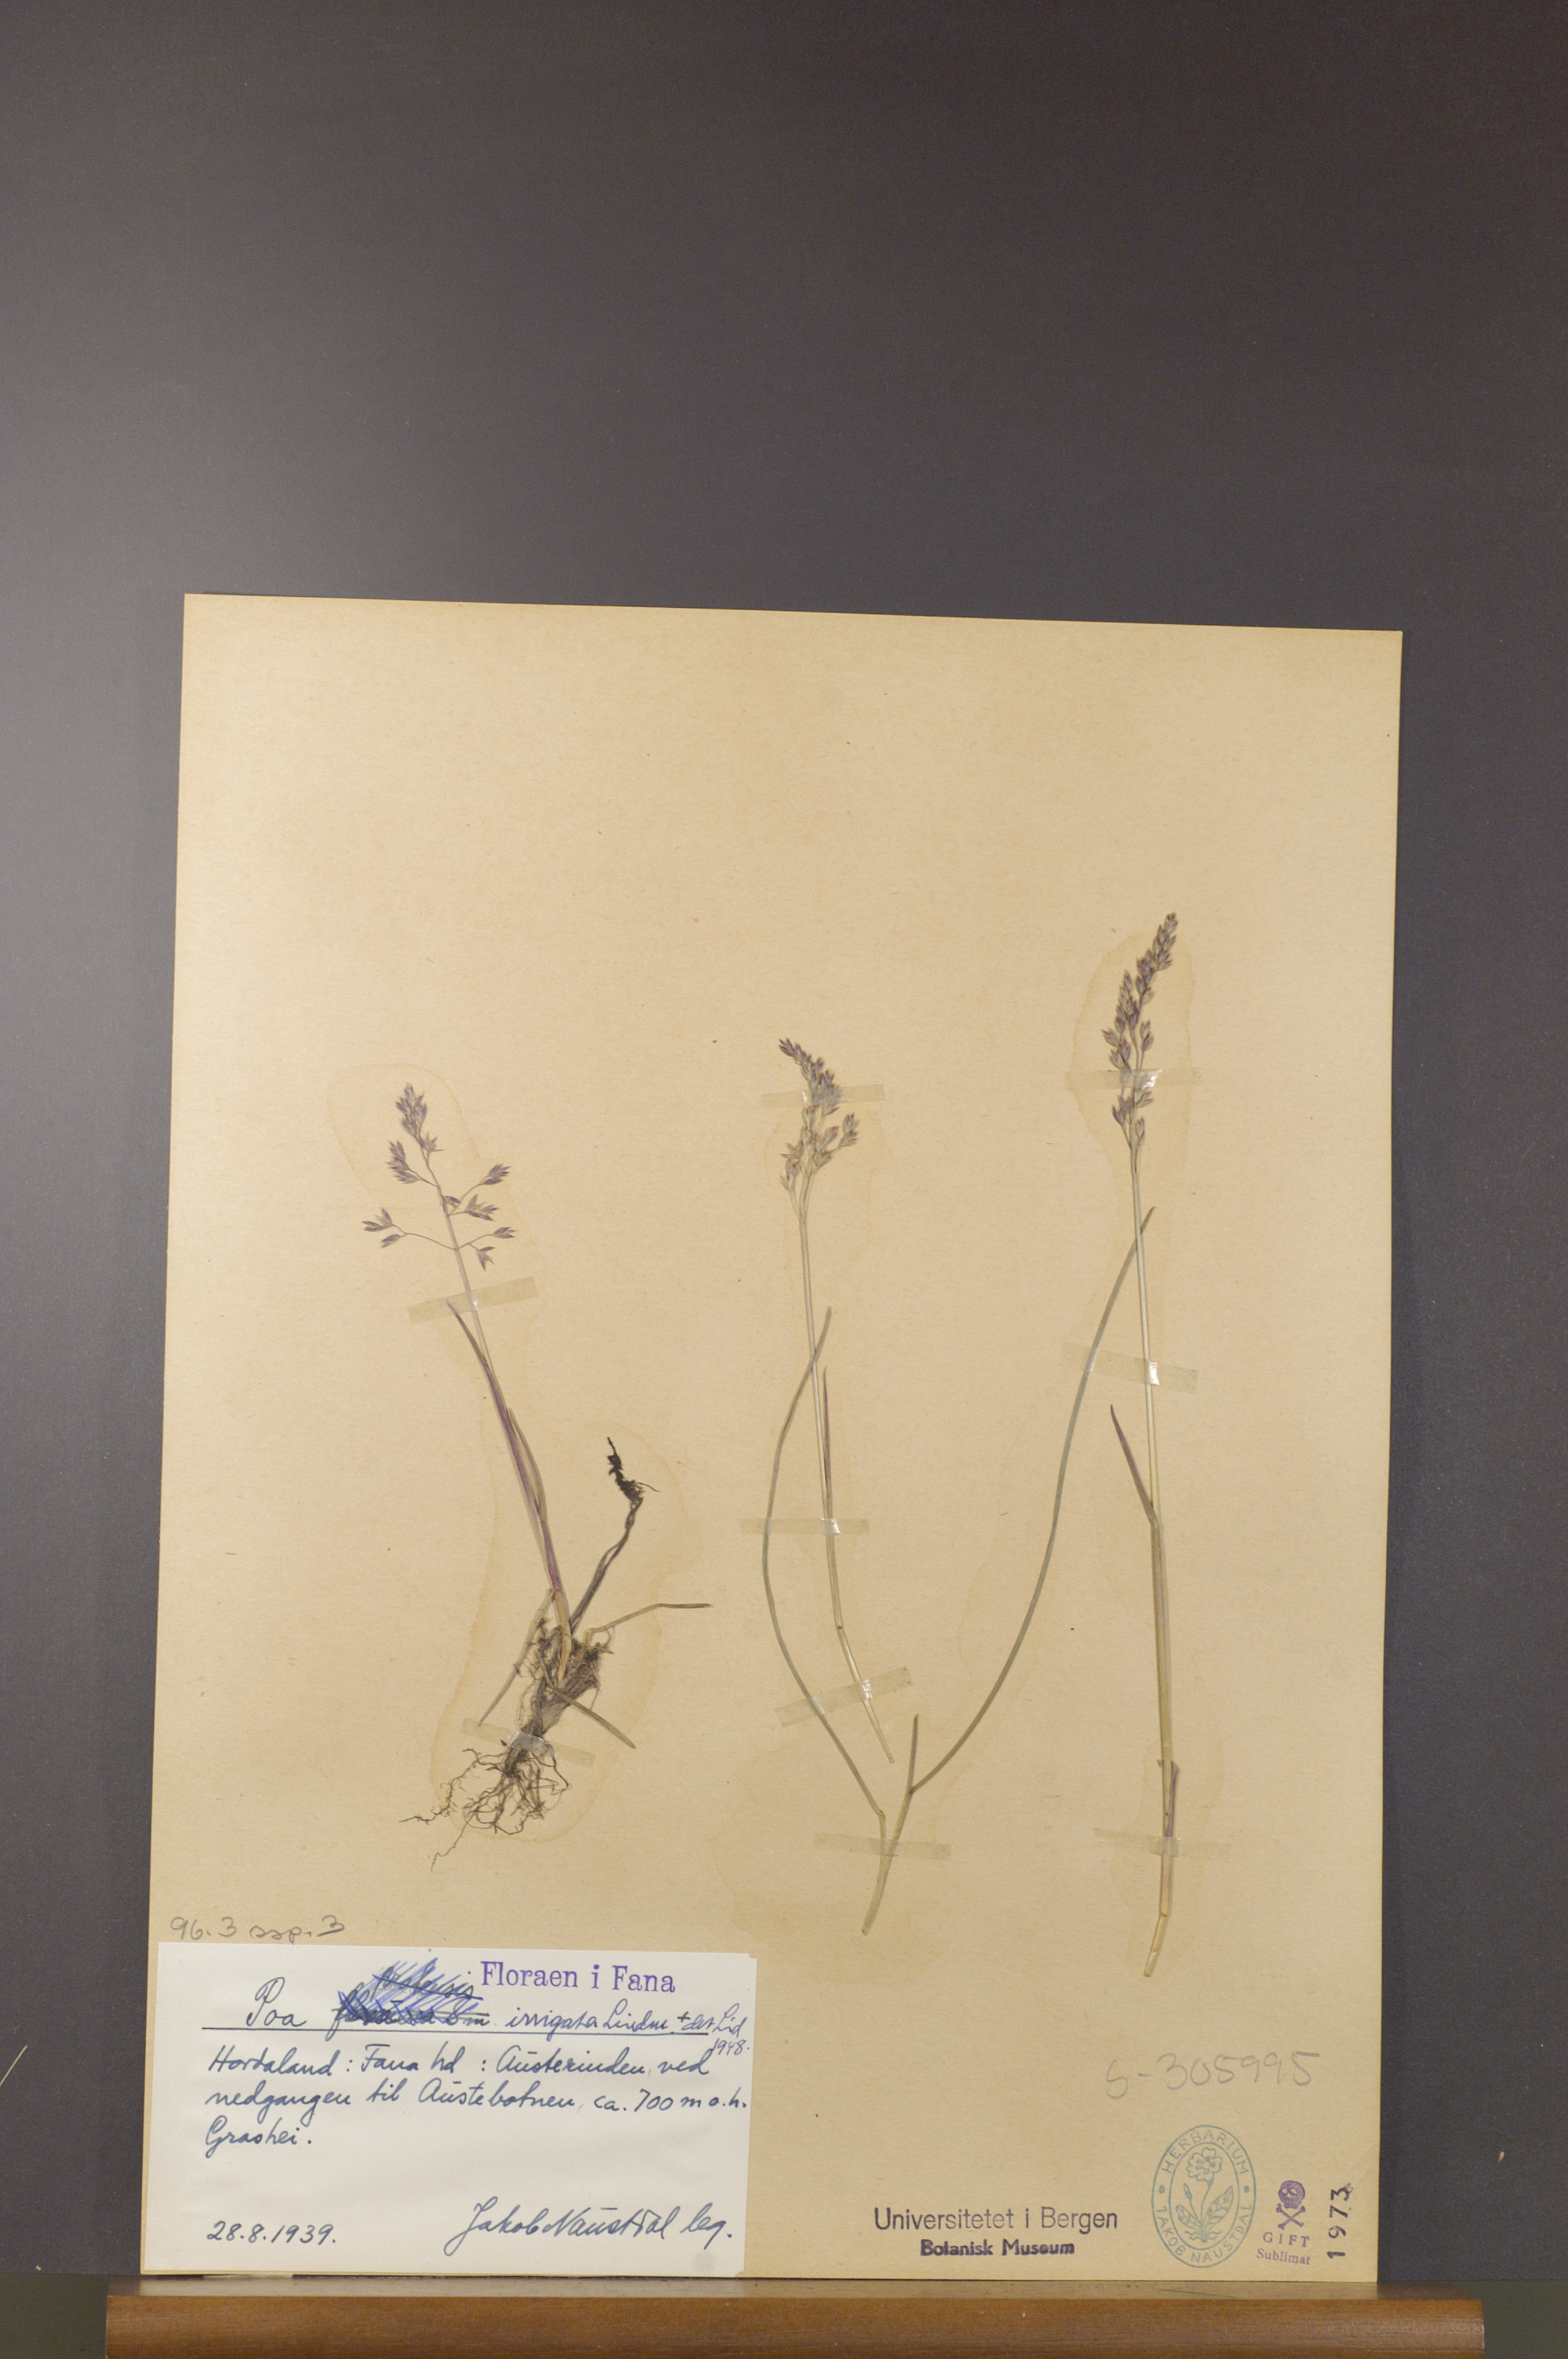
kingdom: Plantae
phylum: Tracheophyta
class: Liliopsida
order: Poales
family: Poaceae
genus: Poa
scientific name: Poa humilis
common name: Spreading meadow-grass
